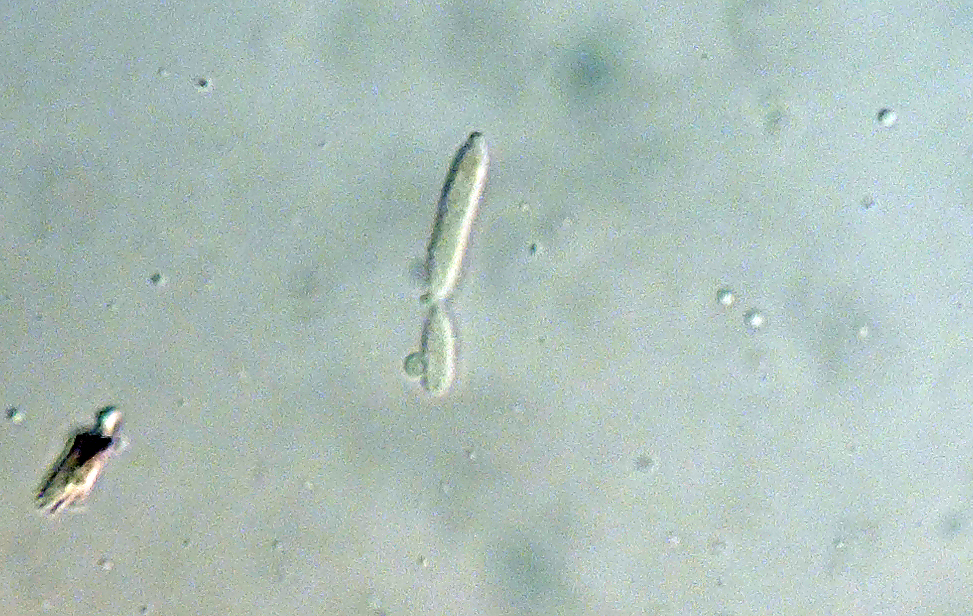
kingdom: Fungi
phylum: Ascomycota
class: Dothideomycetes
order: Mycosphaerellales
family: Mycosphaerellaceae
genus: Ramularia
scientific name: Ramularia pratensis
